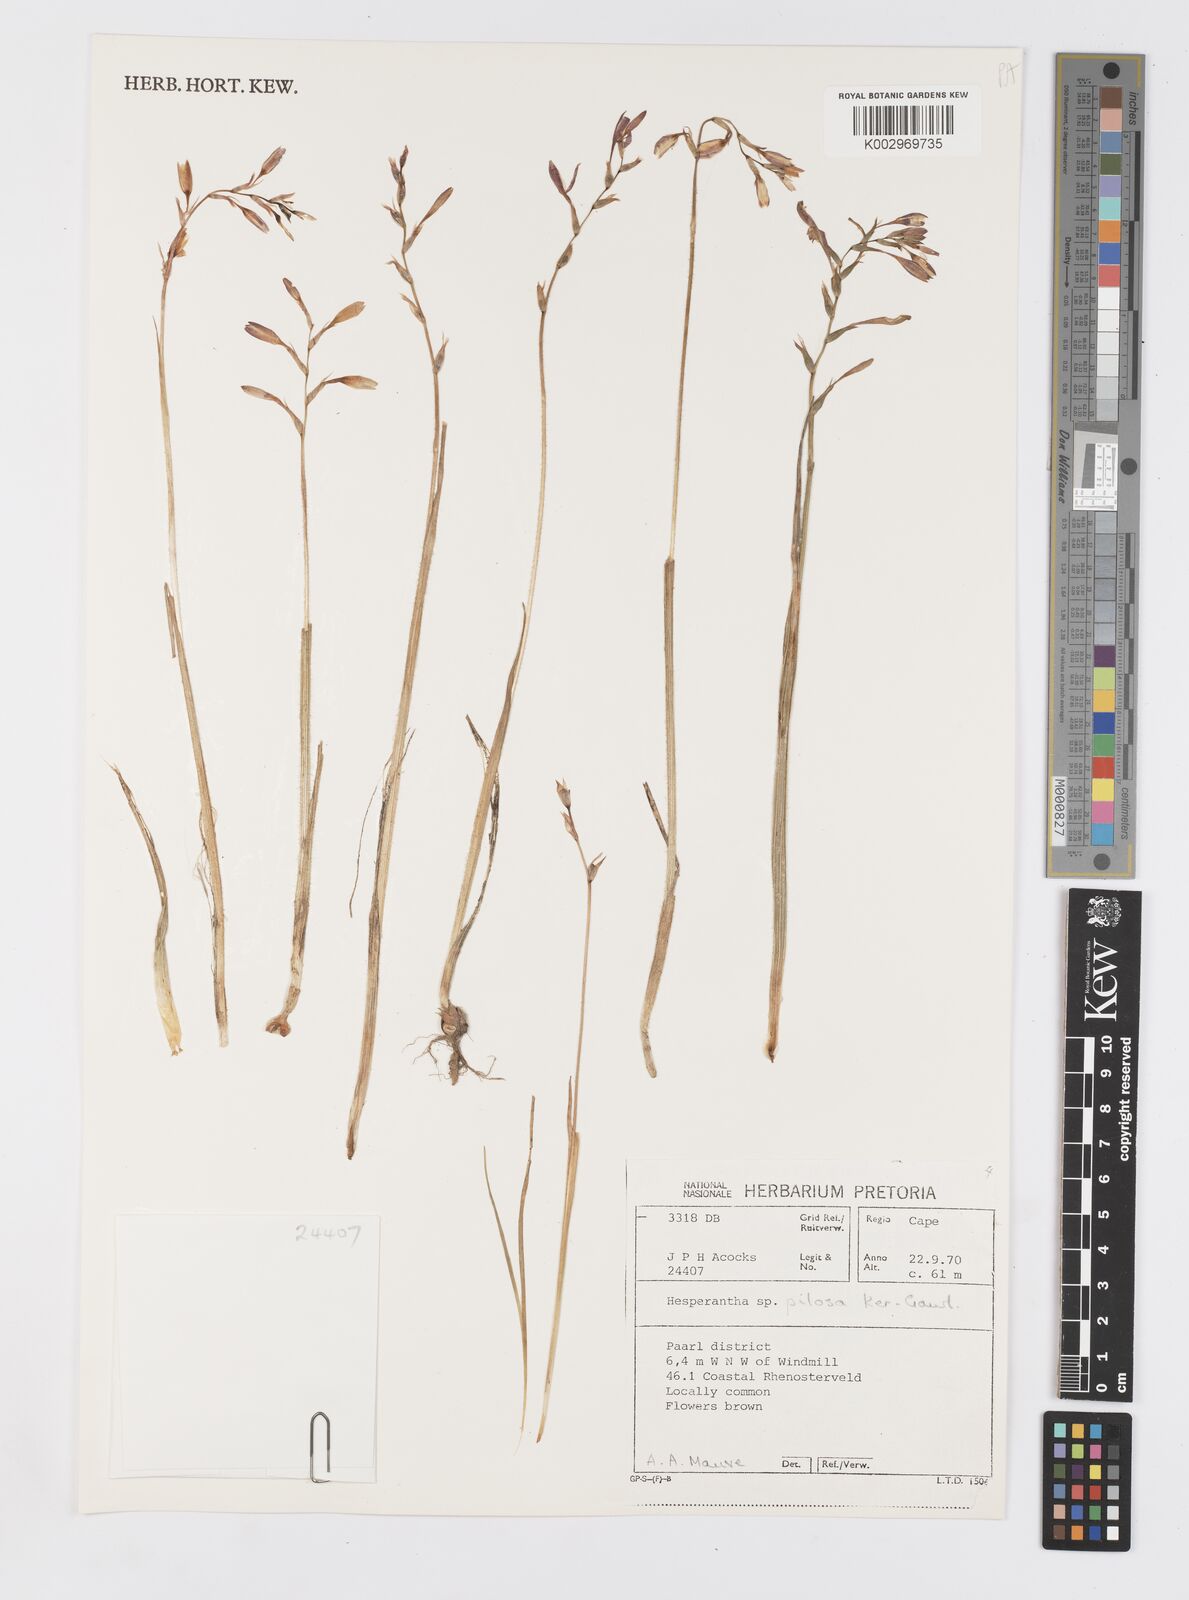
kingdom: Plantae
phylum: Tracheophyta
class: Liliopsida
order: Asparagales
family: Iridaceae
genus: Hesperantha
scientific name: Hesperantha pilosa
